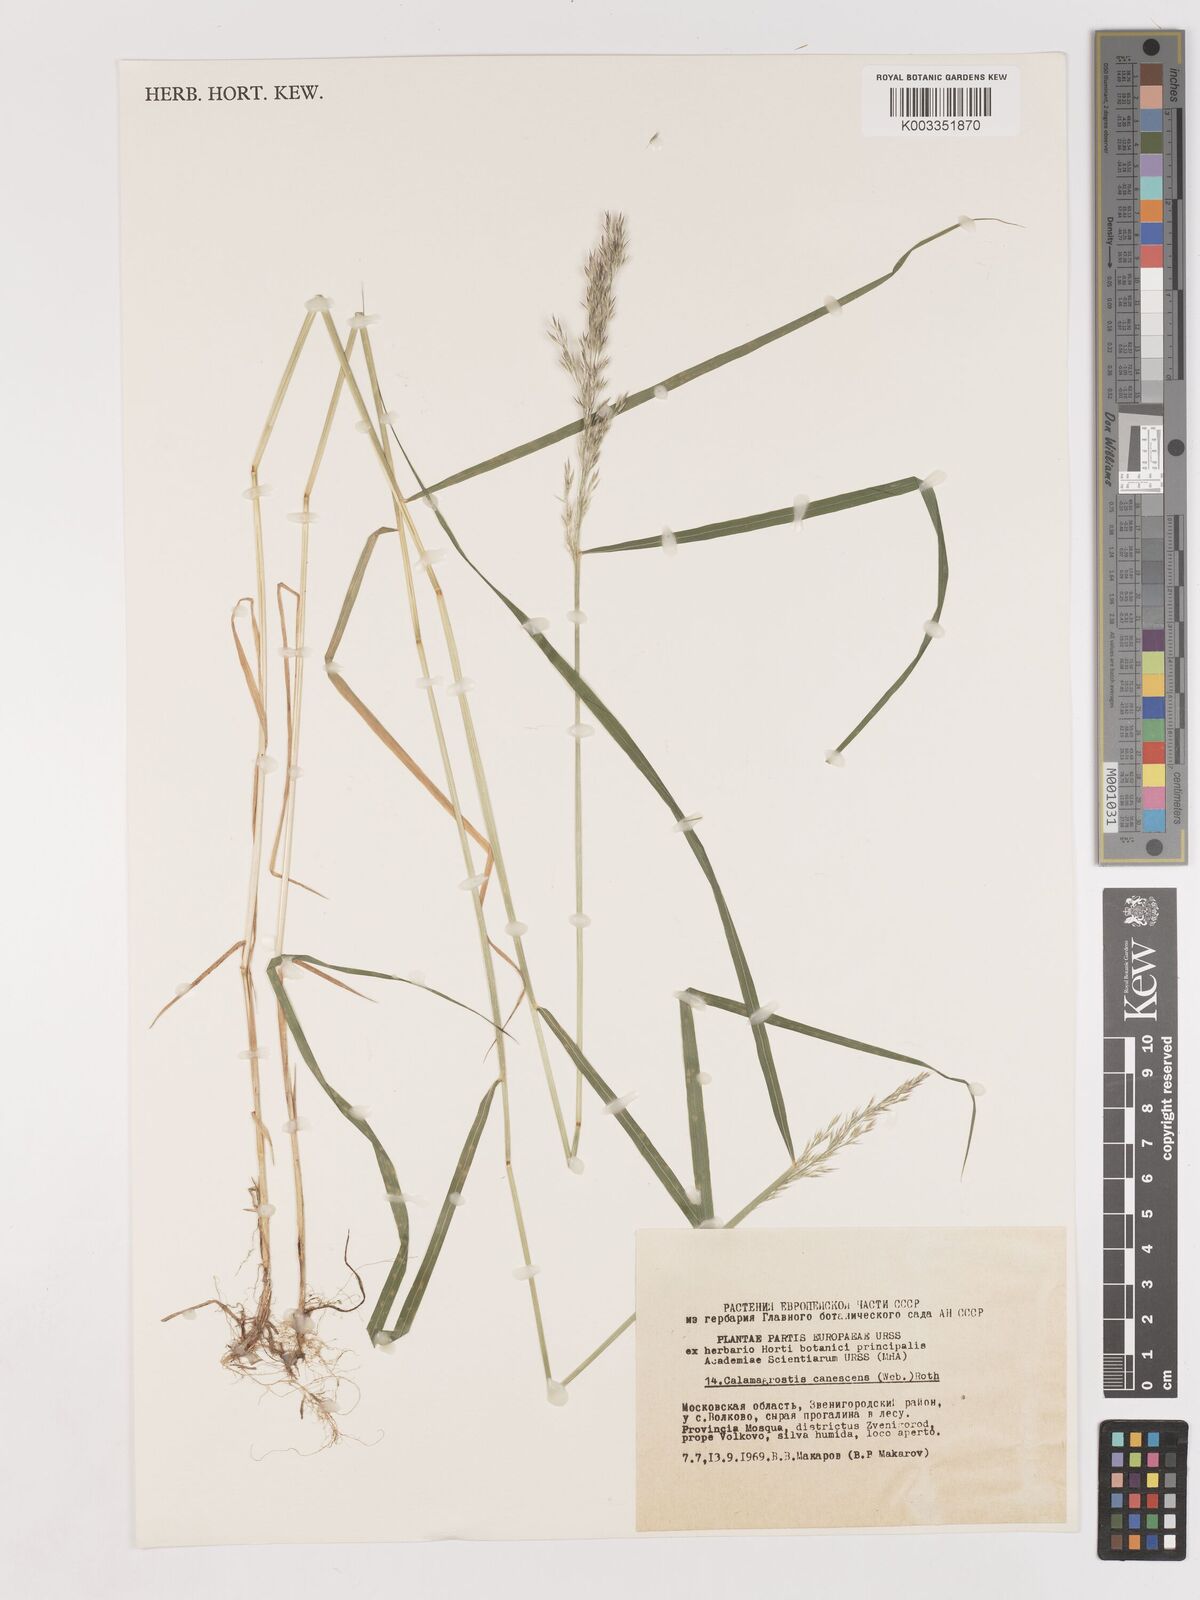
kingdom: Plantae
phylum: Tracheophyta
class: Liliopsida
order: Poales
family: Poaceae
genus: Calamagrostis
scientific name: Calamagrostis canescens
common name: Purple small-reed
